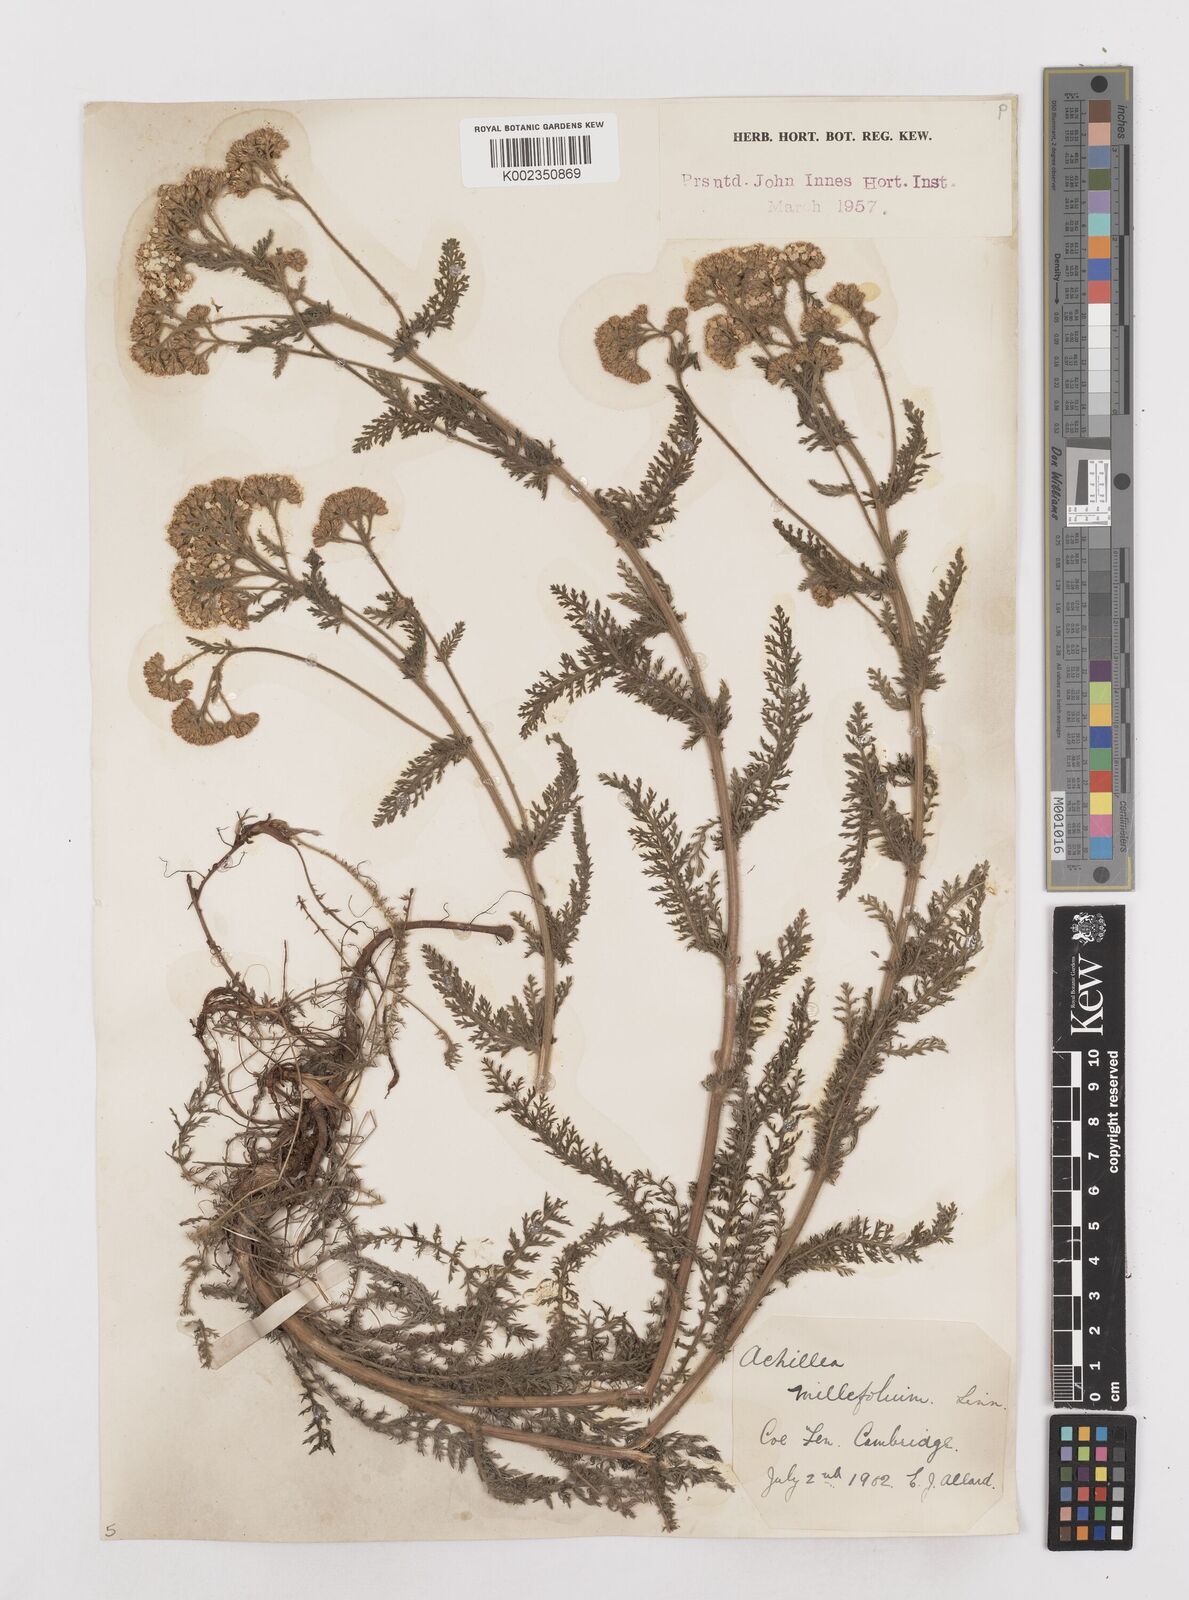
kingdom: Plantae
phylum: Tracheophyta
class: Magnoliopsida
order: Asterales
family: Asteraceae
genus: Achillea
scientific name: Achillea millefolium
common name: Yarrow
